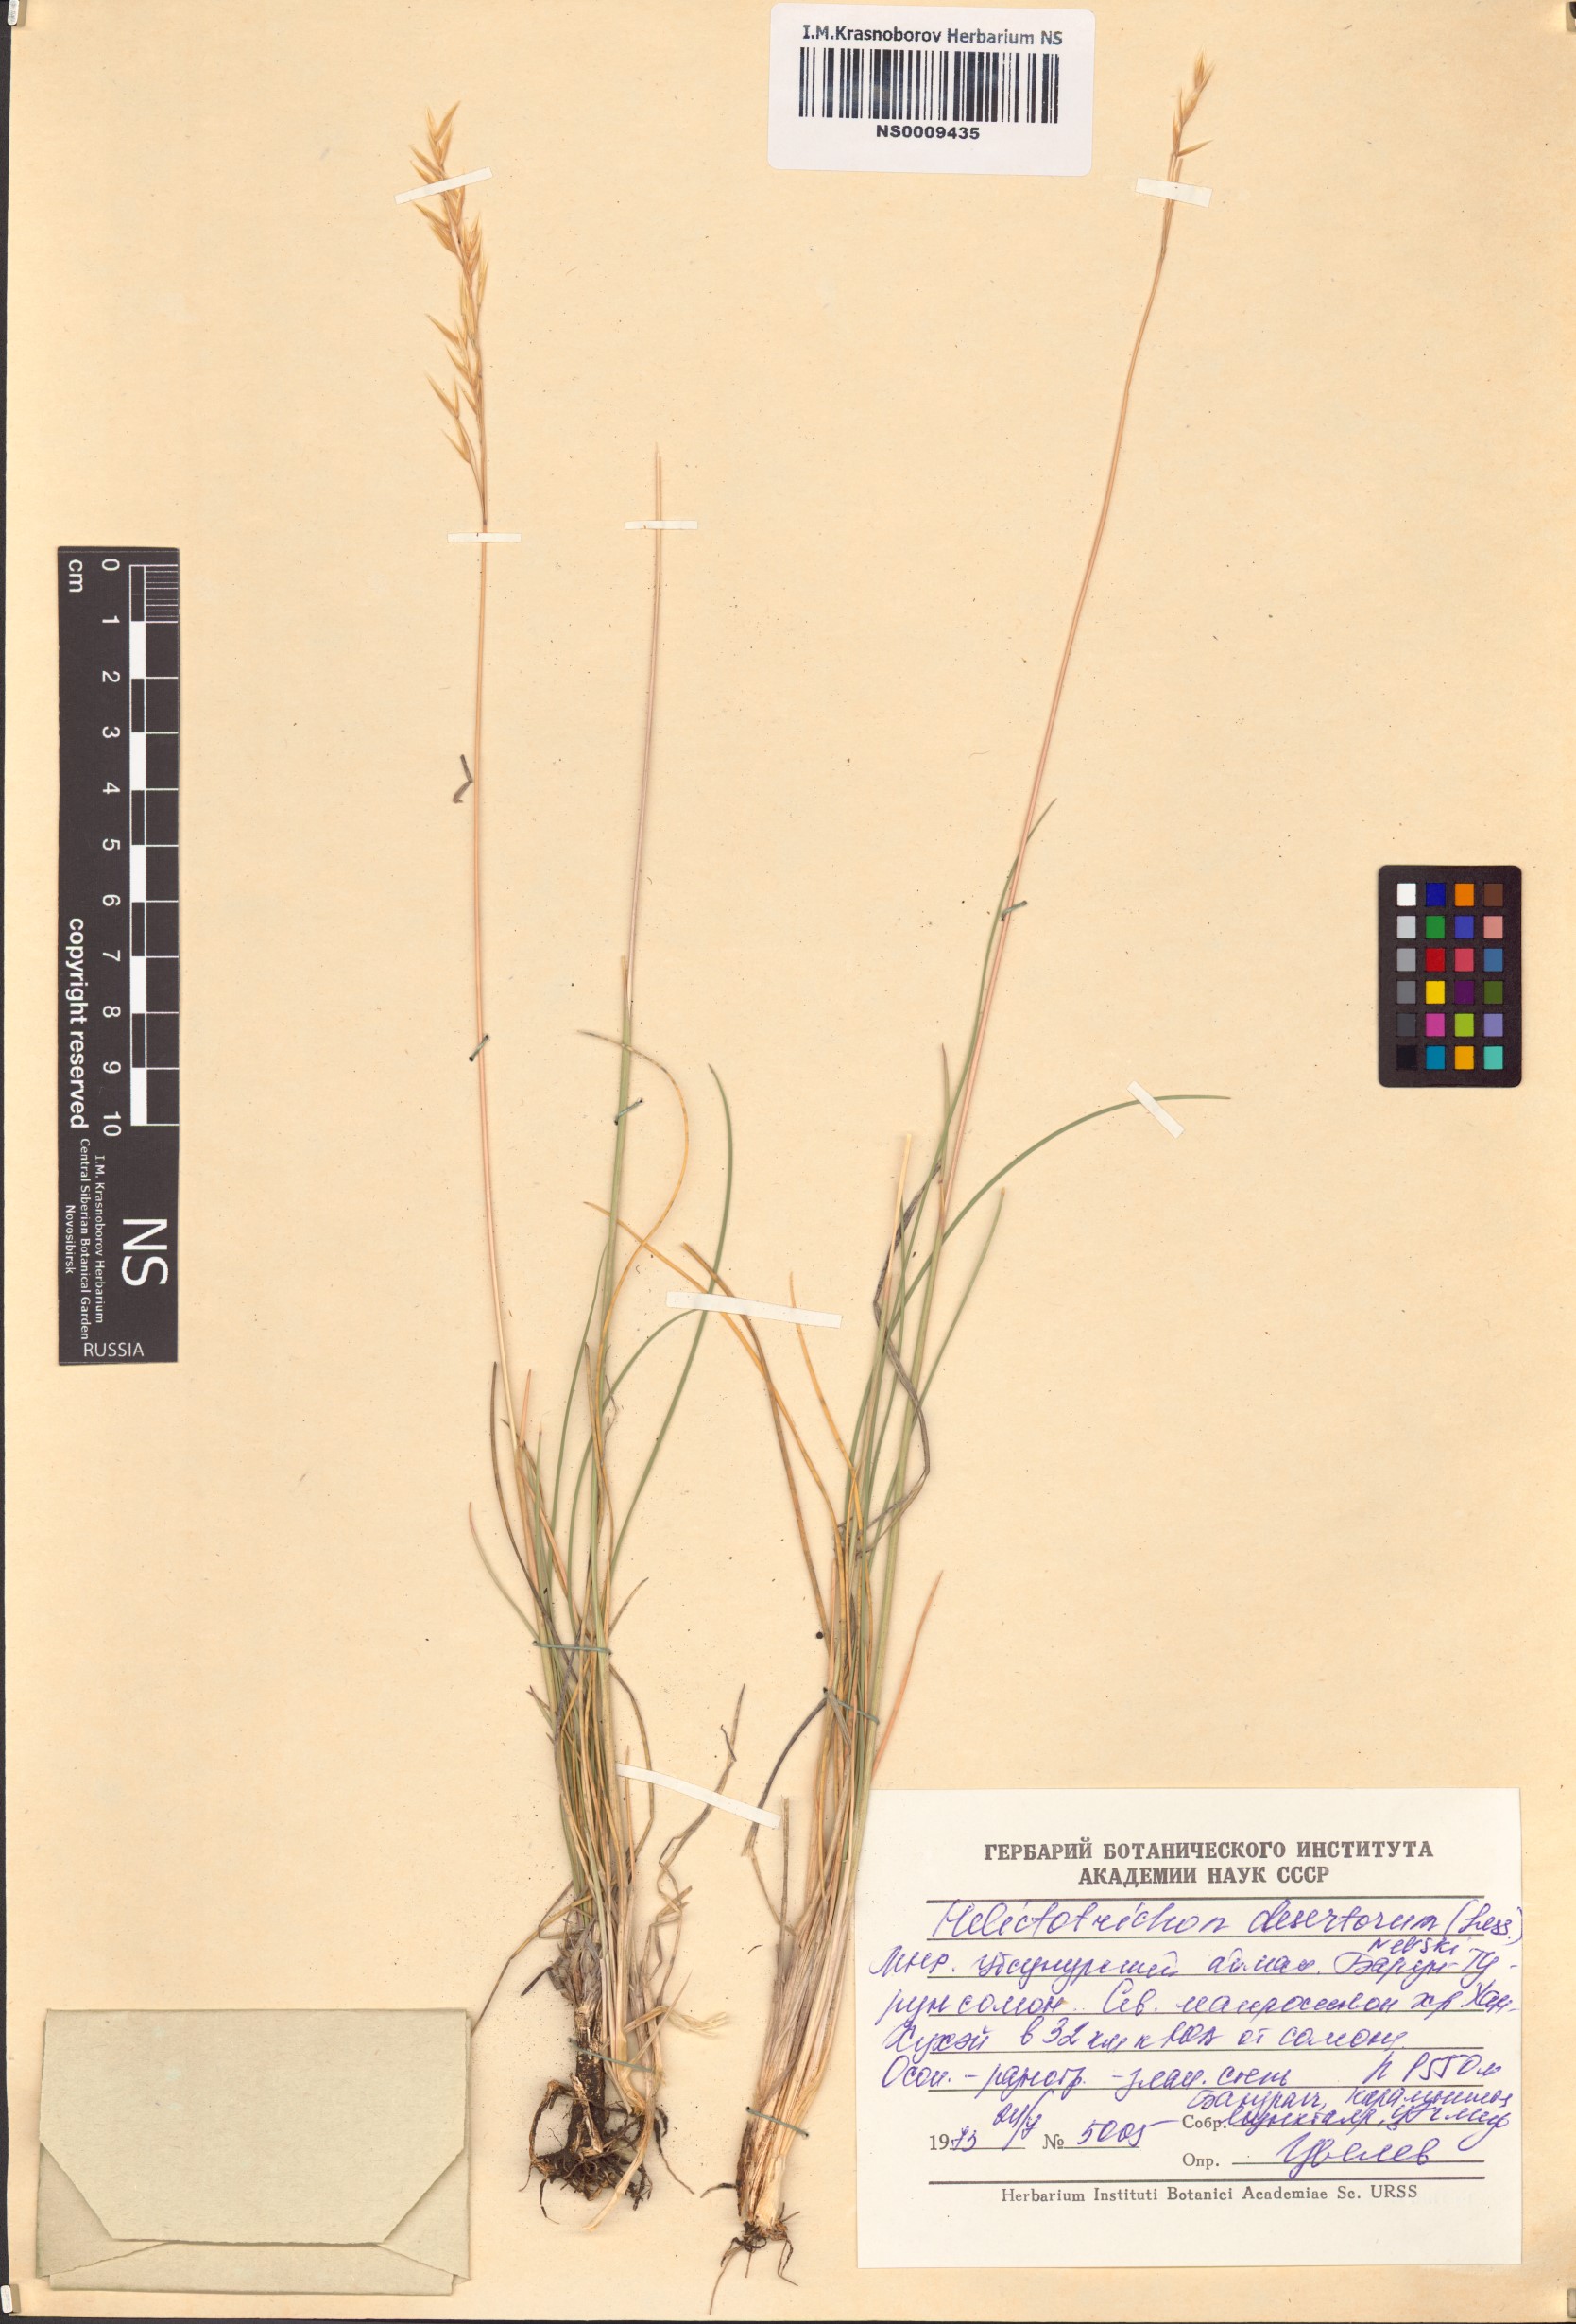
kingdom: Plantae
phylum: Tracheophyta
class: Liliopsida
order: Poales
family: Poaceae
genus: Helictotrichon
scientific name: Helictotrichon desertorum
